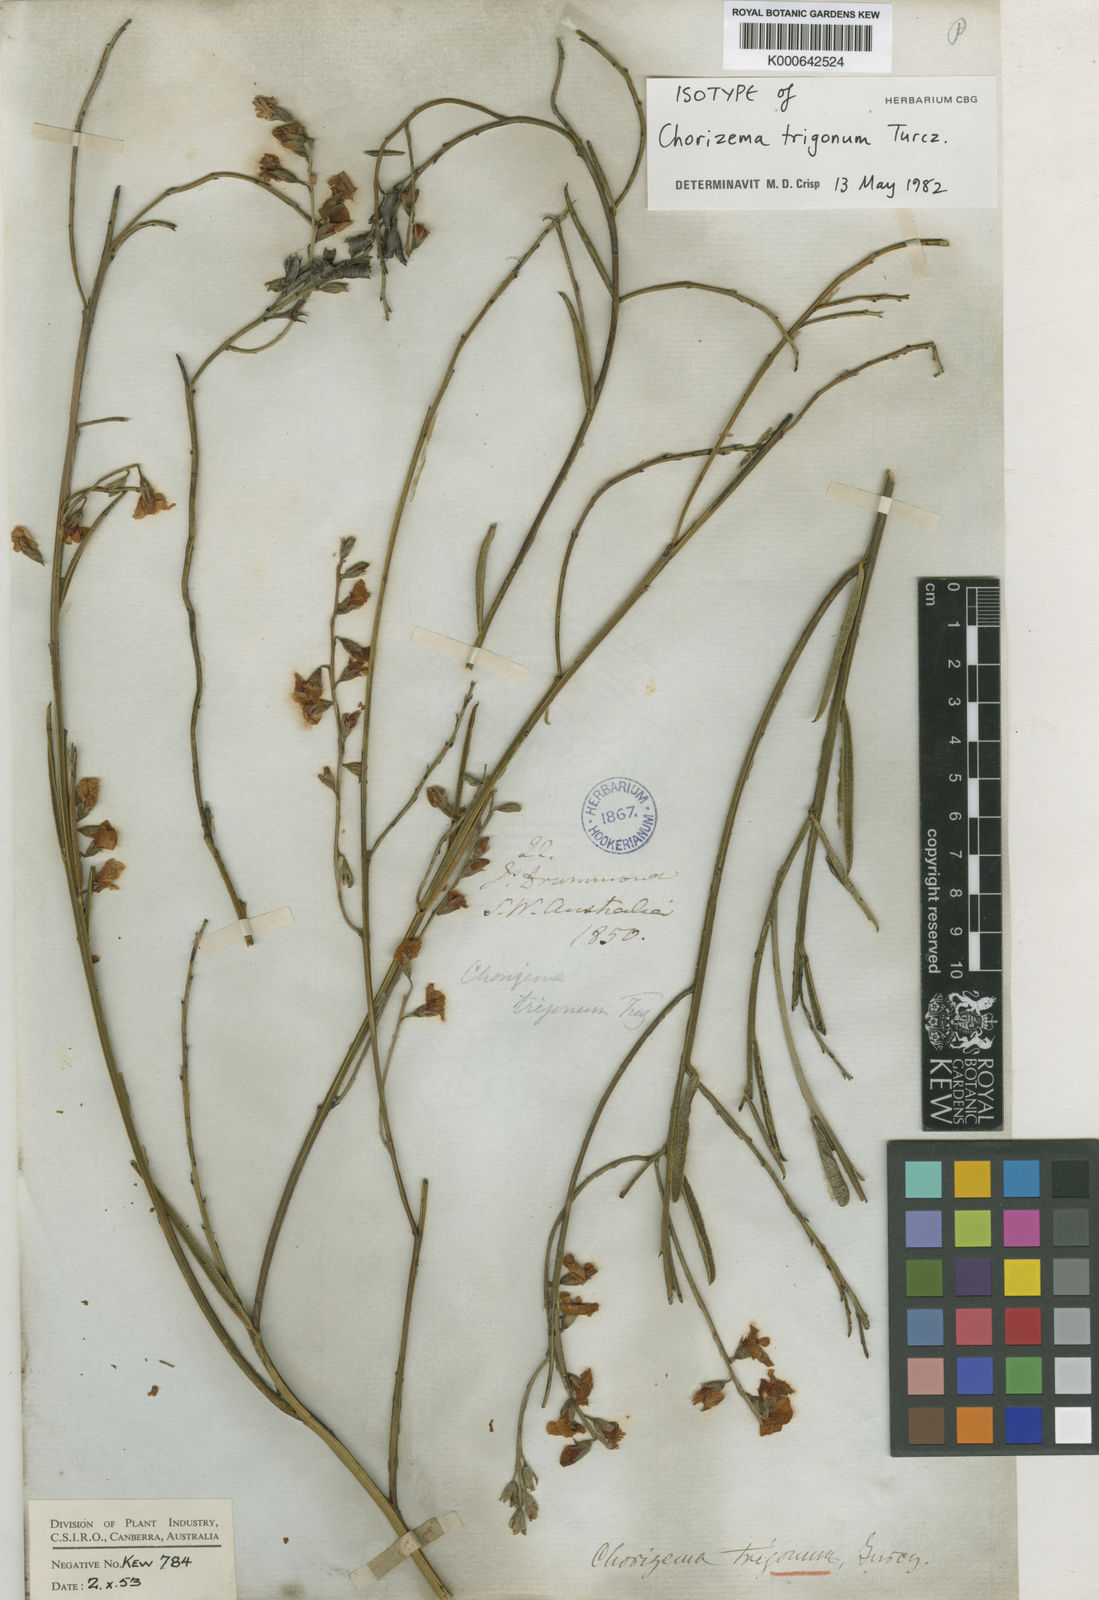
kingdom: Plantae
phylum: Tracheophyta
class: Magnoliopsida
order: Fabales
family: Fabaceae
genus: Chorizema
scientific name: Chorizema trigonum
